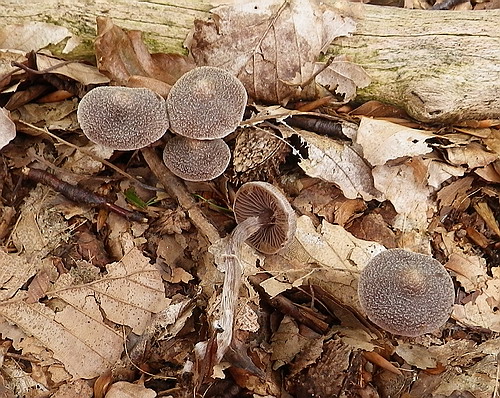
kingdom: Fungi
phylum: Basidiomycota
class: Agaricomycetes
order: Agaricales
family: Cortinariaceae
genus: Cortinarius
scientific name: Cortinarius
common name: pelargonie-slørhat
